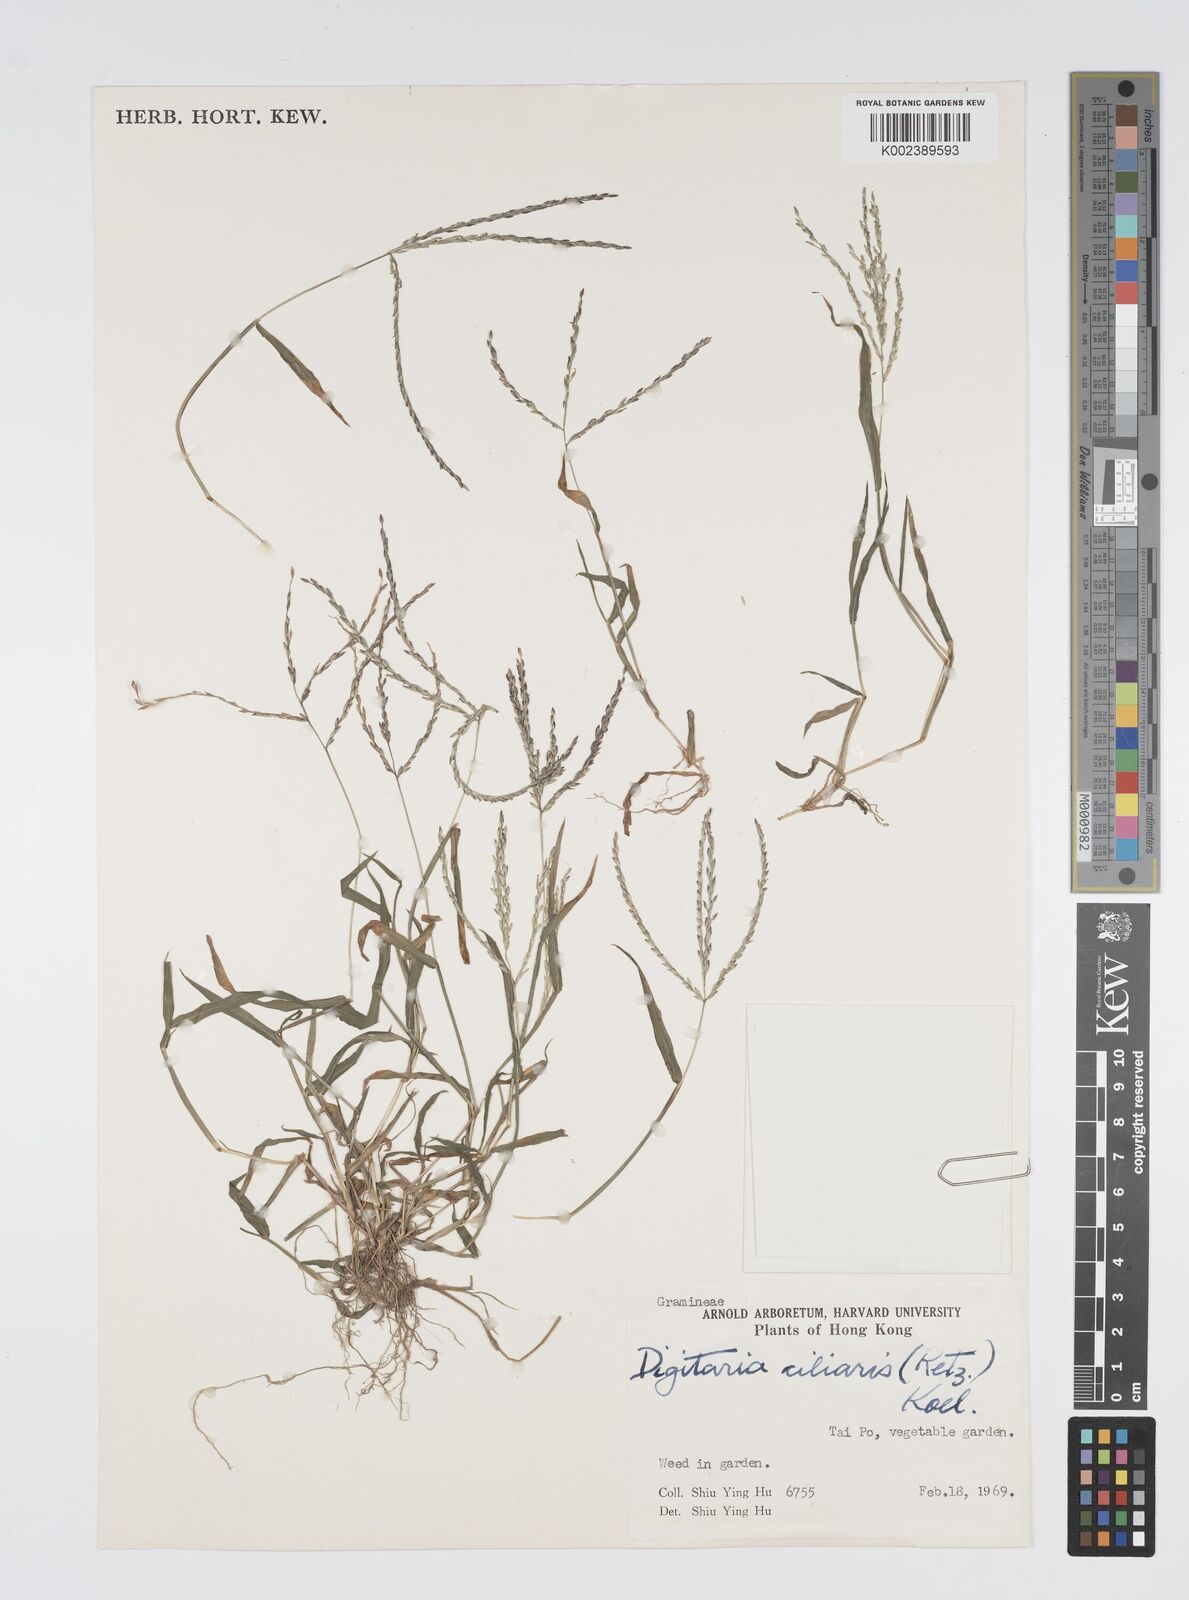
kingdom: Plantae
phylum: Tracheophyta
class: Liliopsida
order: Poales
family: Poaceae
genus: Digitaria
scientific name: Digitaria ciliaris
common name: Tropical finger-grass
